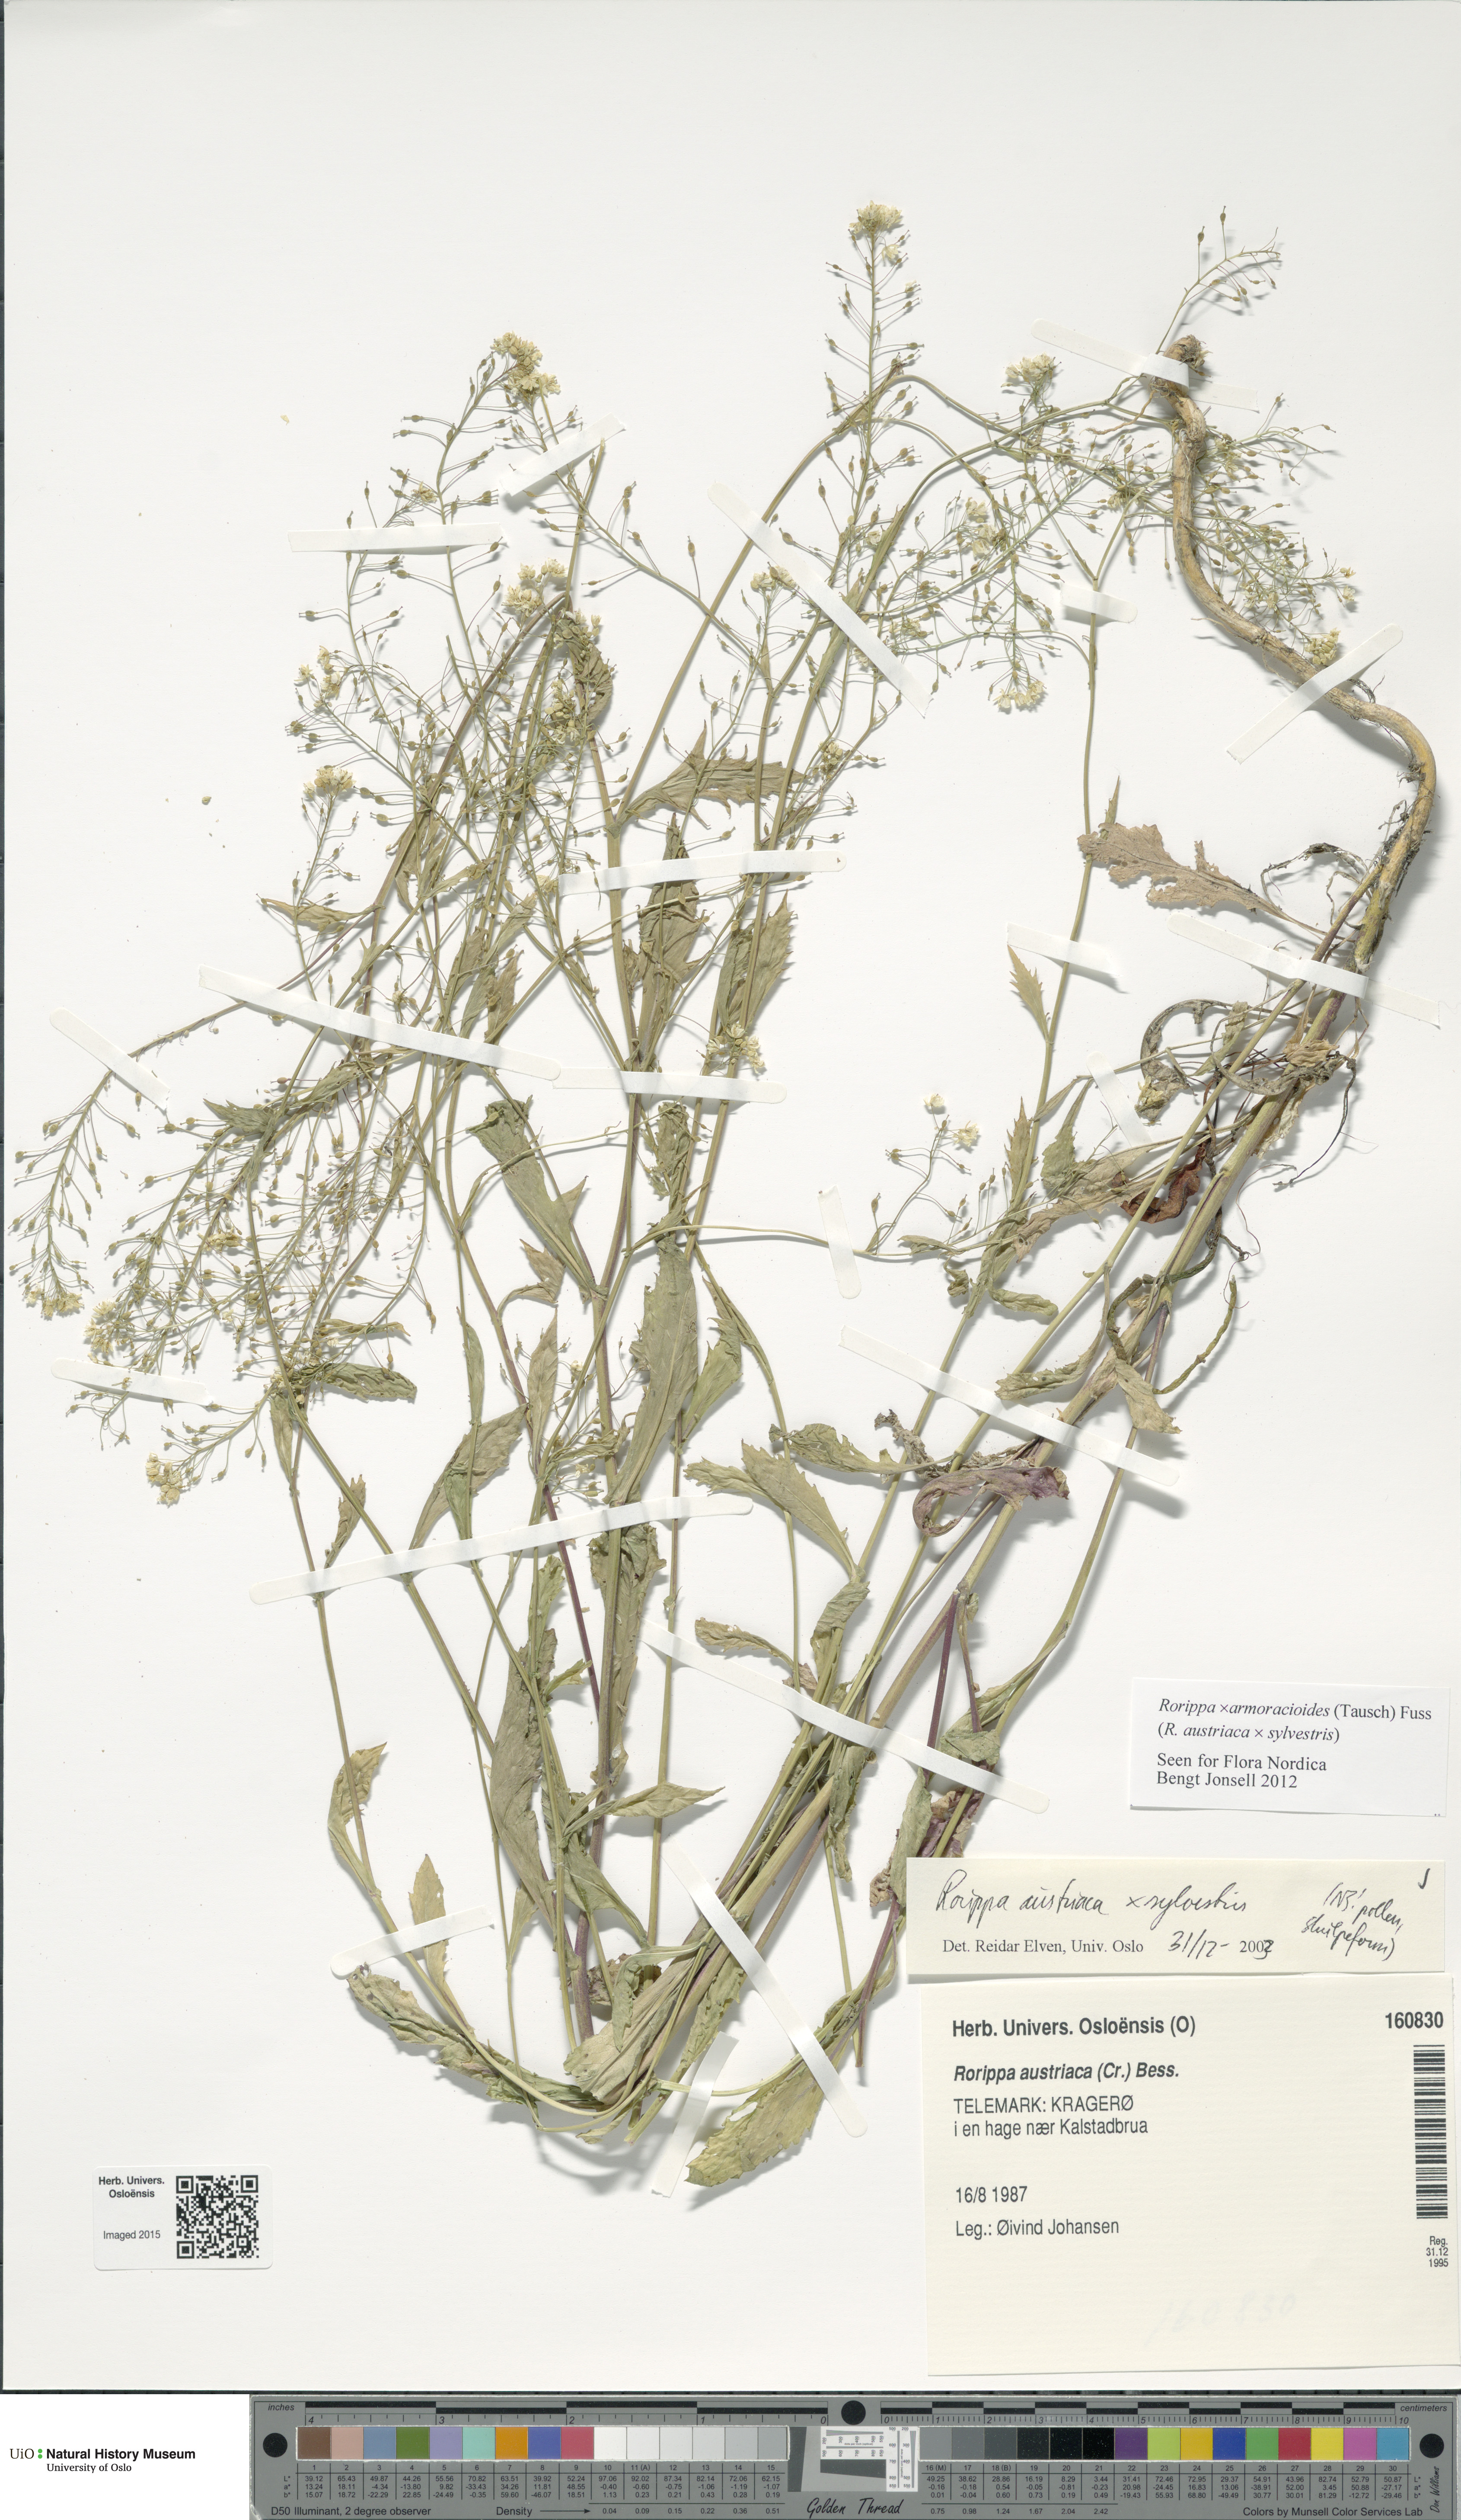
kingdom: Plantae
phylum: Tracheophyta
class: Magnoliopsida
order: Brassicales
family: Brassicaceae
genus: Rorippa
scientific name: Rorippa
